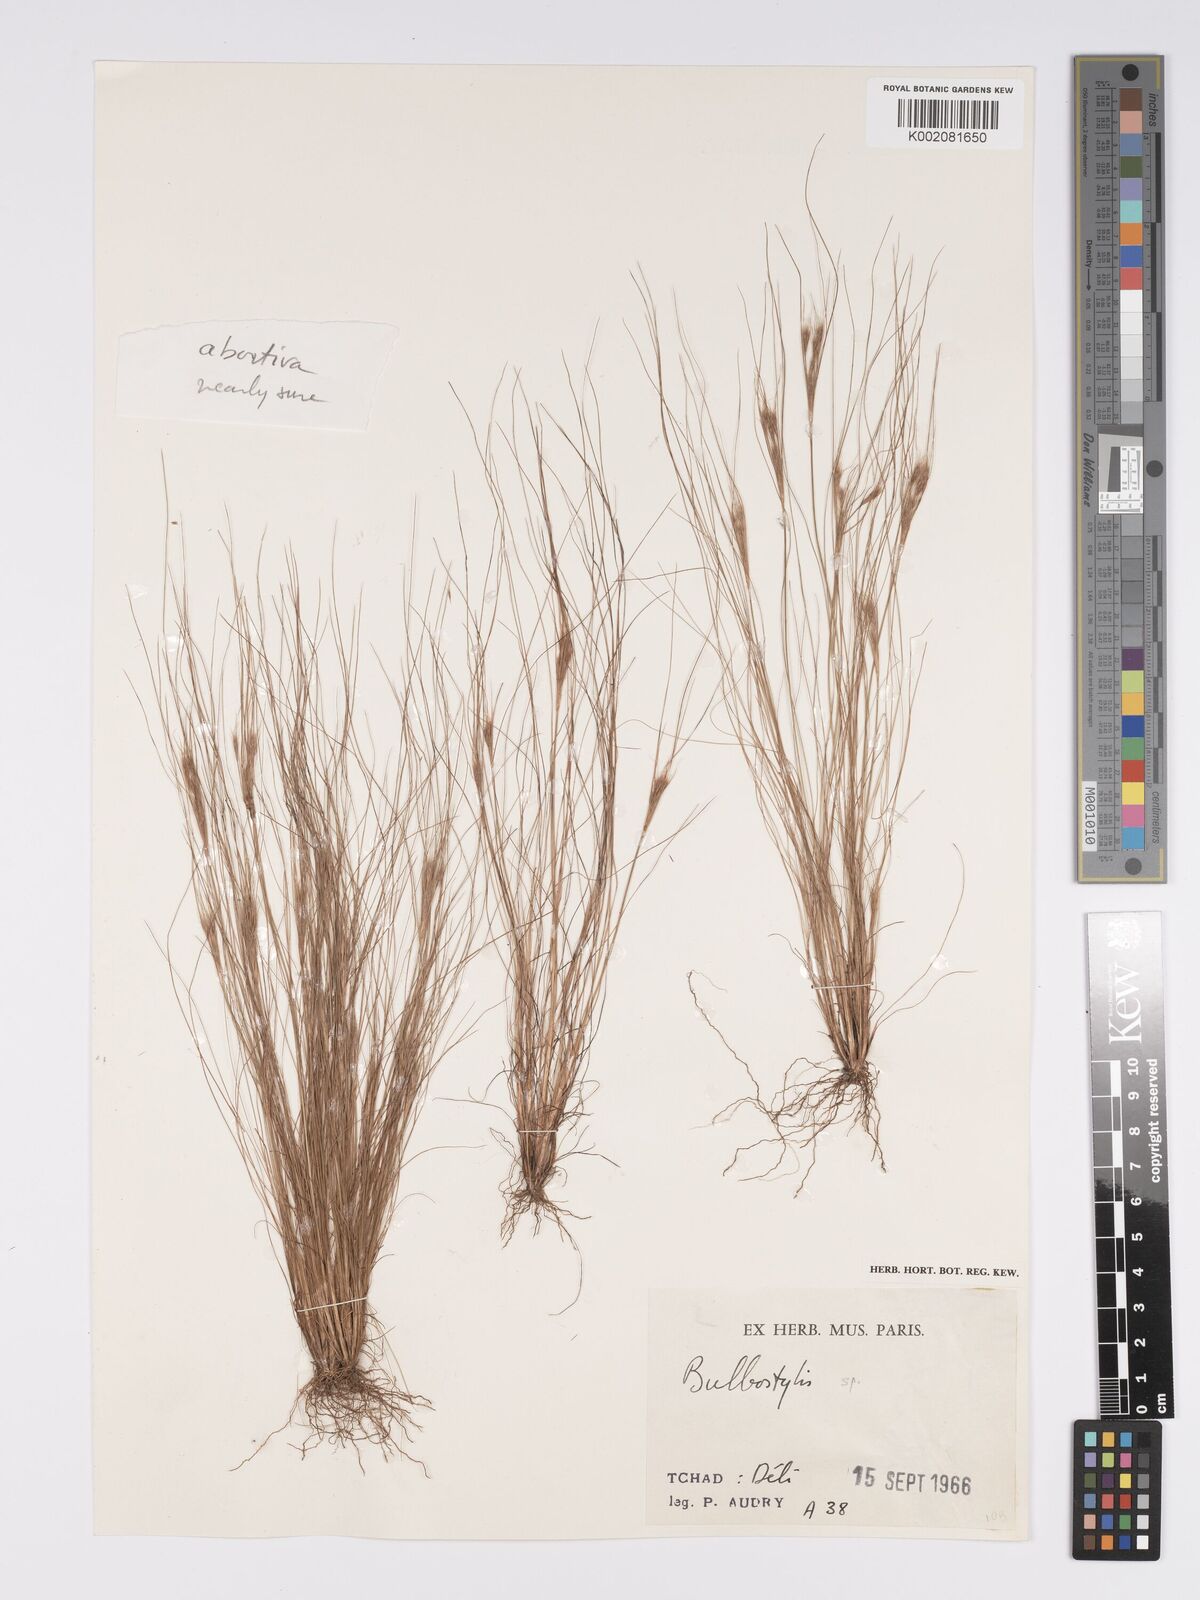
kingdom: Plantae
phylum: Tracheophyta
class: Liliopsida
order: Poales
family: Cyperaceae
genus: Bulbostylis
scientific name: Bulbostylis abortiva
